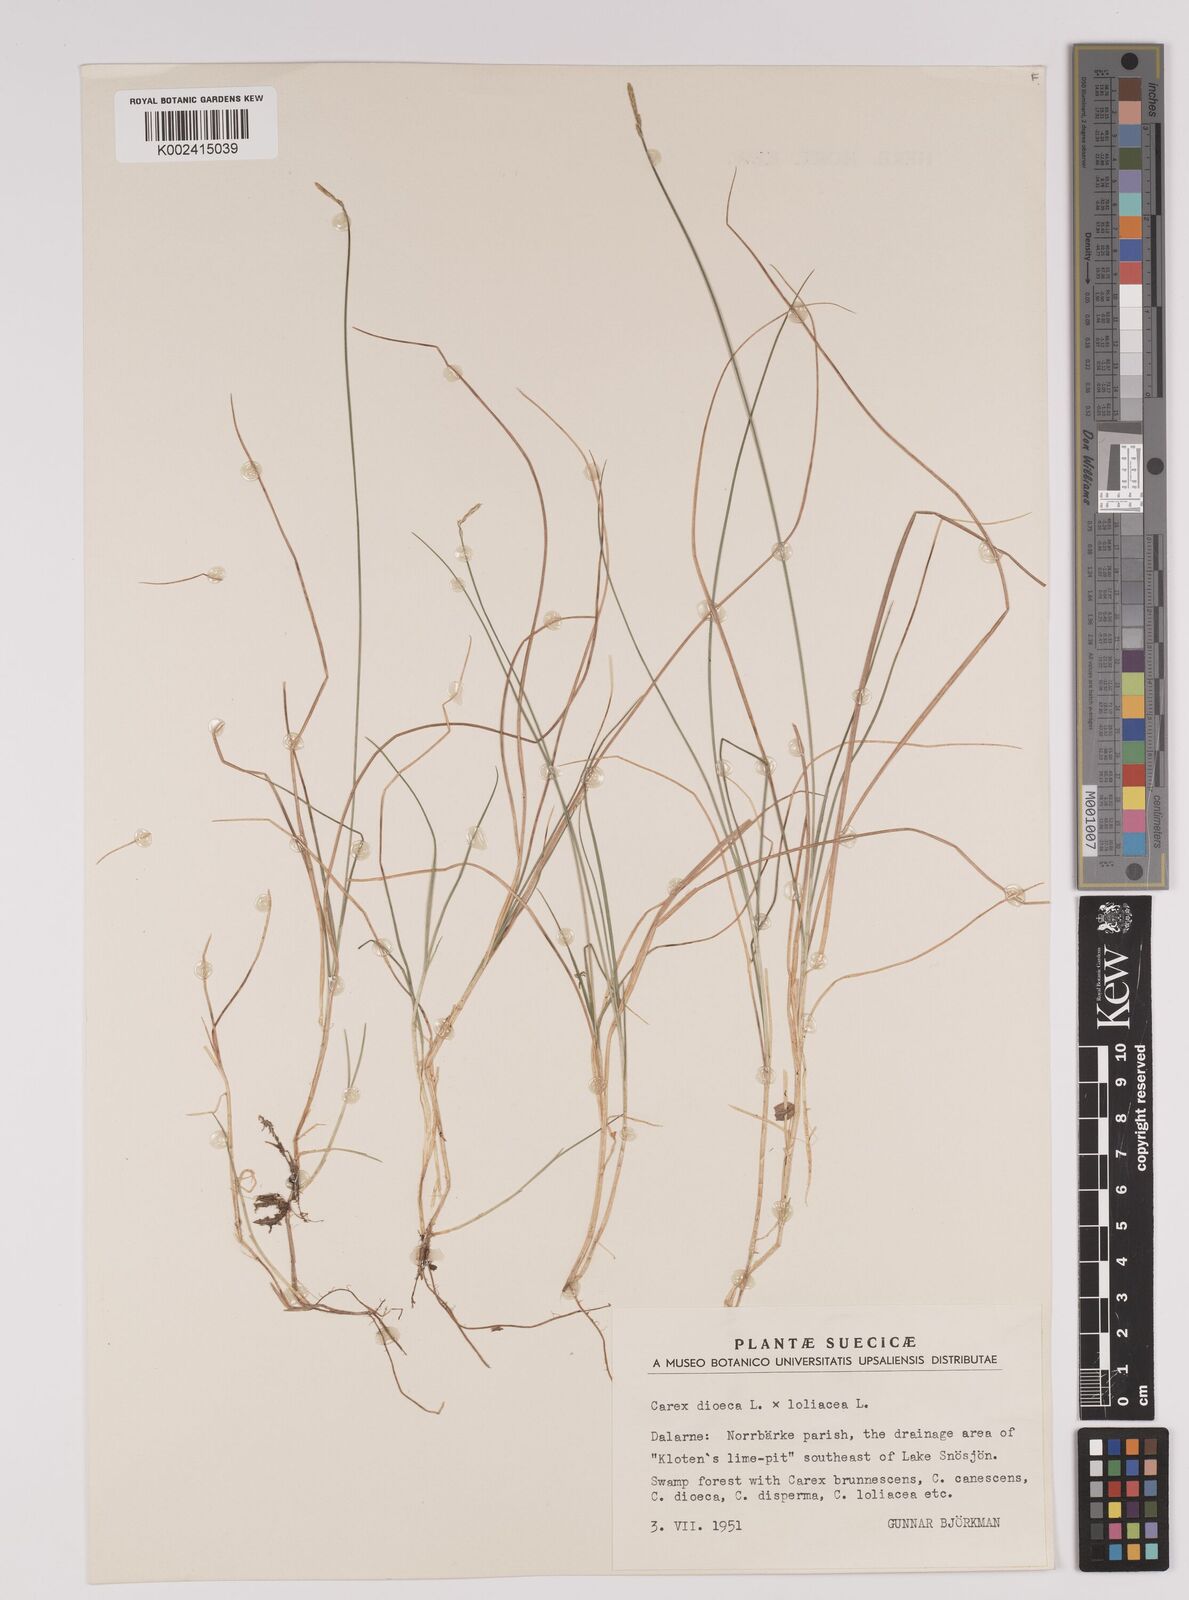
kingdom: Plantae
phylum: Tracheophyta
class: Liliopsida
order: Poales
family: Cyperaceae
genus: Carex
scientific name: Carex dioica
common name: Dioecious sedge
